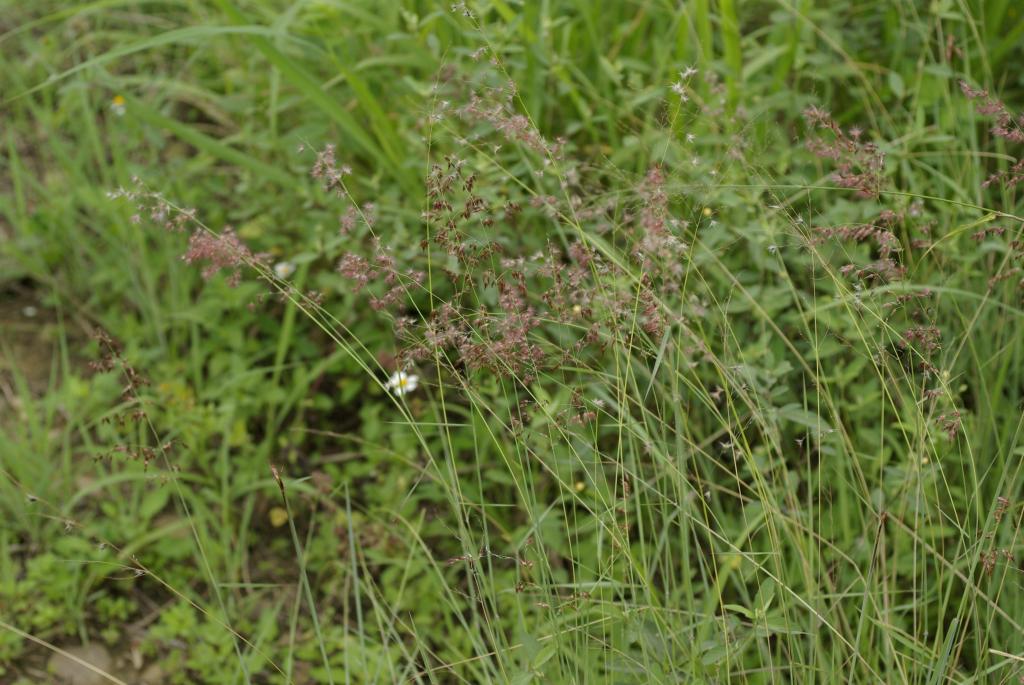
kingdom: Plantae
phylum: Tracheophyta
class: Liliopsida
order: Poales
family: Poaceae
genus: Melinis
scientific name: Melinis repens
